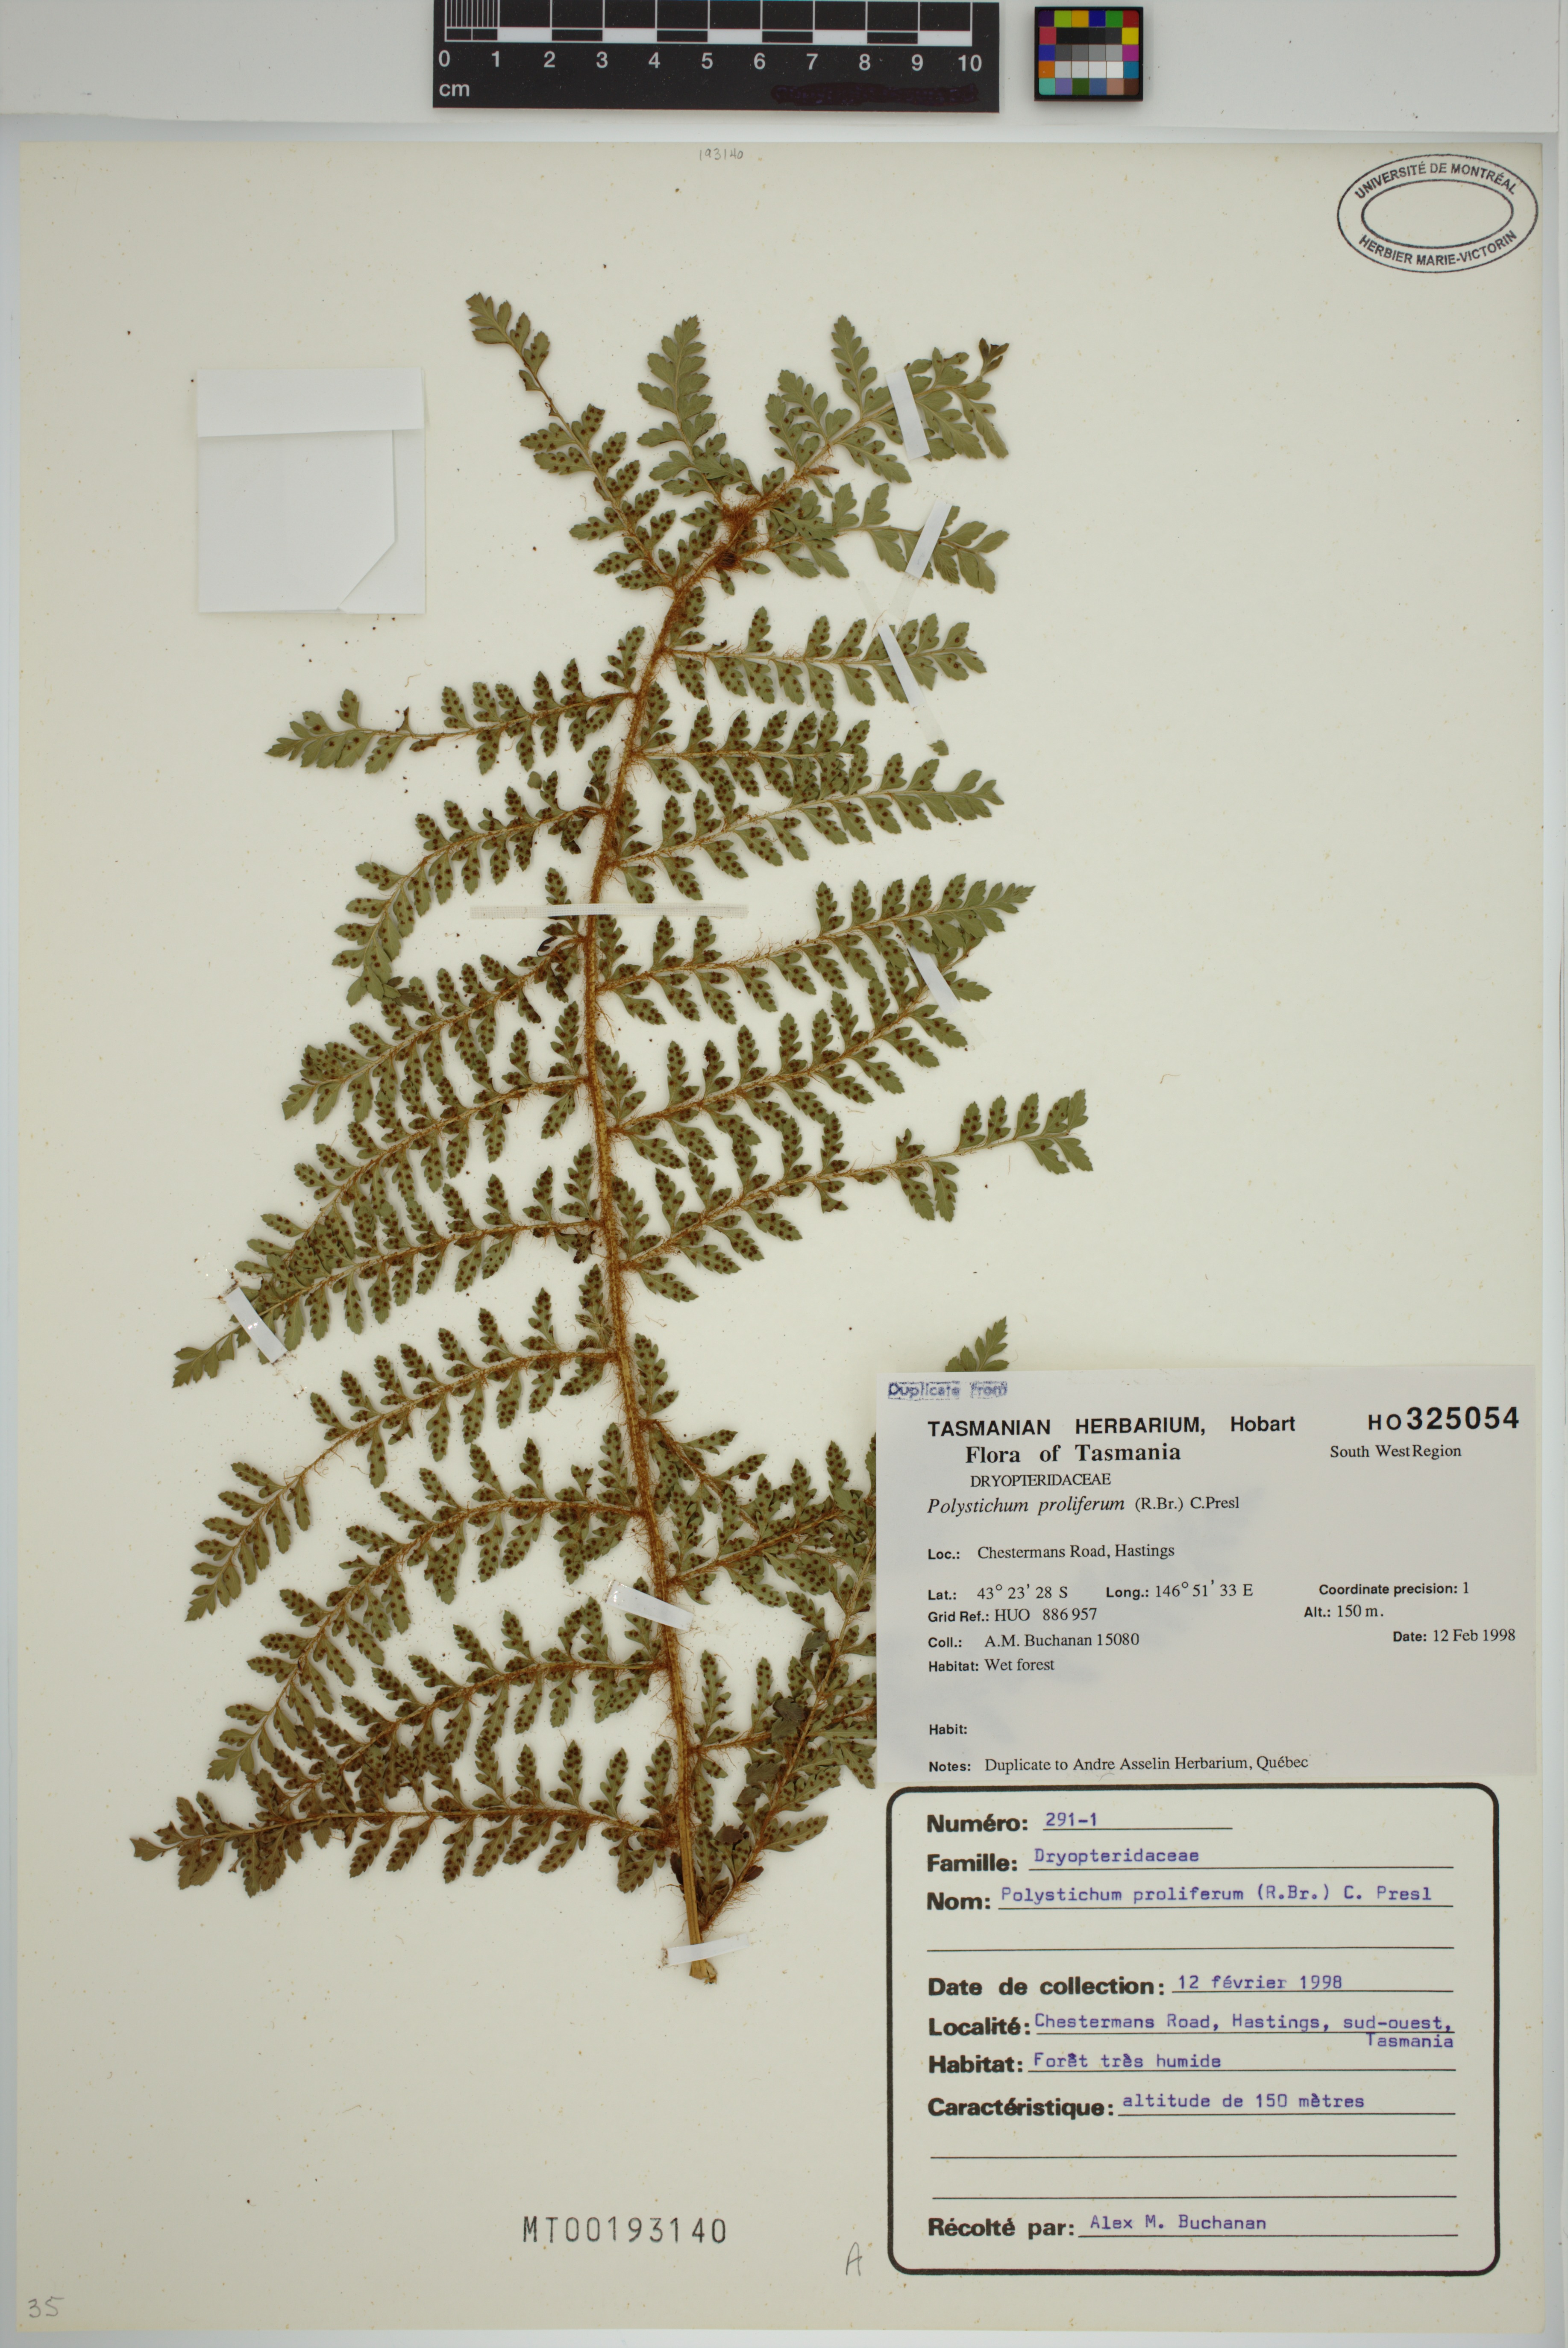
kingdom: Plantae
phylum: Tracheophyta
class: Polypodiopsida
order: Polypodiales
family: Dryopteridaceae
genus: Polystichum
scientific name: Polystichum proliferum
